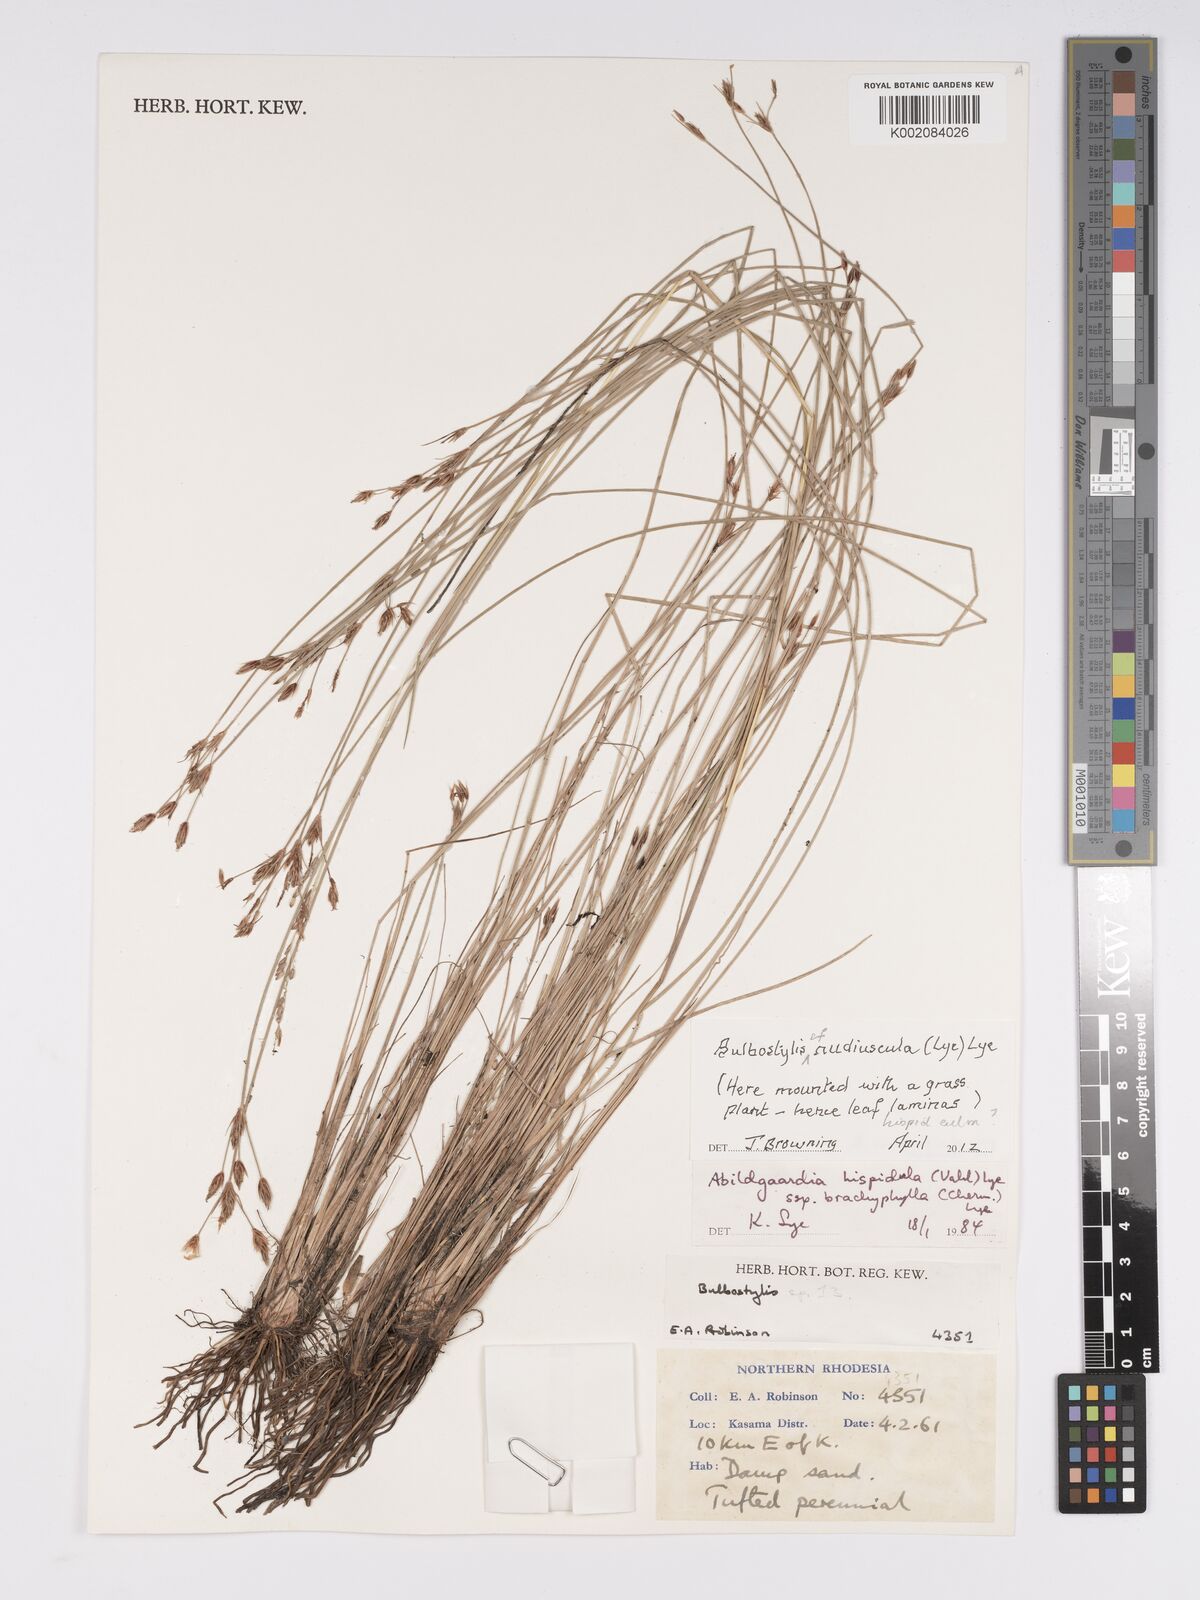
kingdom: Plantae
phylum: Tracheophyta
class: Liliopsida
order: Poales
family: Cyperaceae
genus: Bulbostylis
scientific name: Bulbostylis nudiuscula
